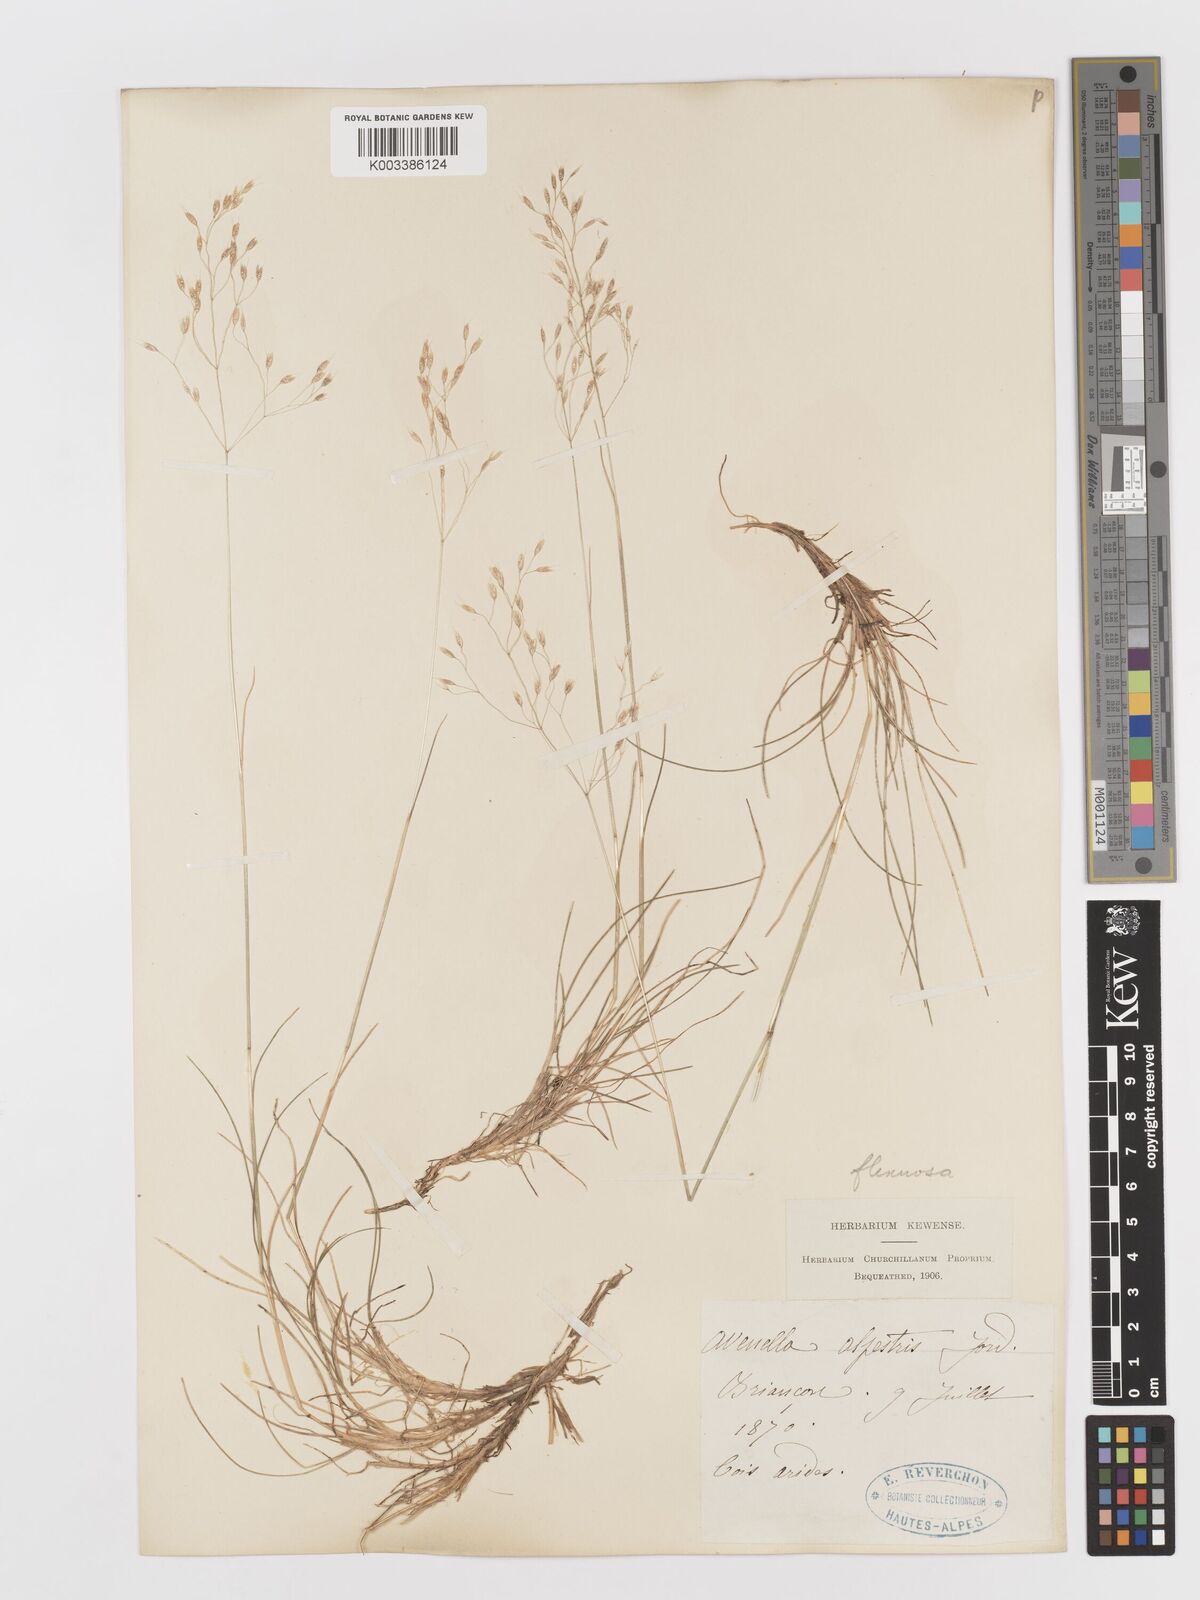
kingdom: Plantae
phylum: Tracheophyta
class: Liliopsida
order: Poales
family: Poaceae
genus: Avenella
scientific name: Avenella flexuosa
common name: Wavy hairgrass
